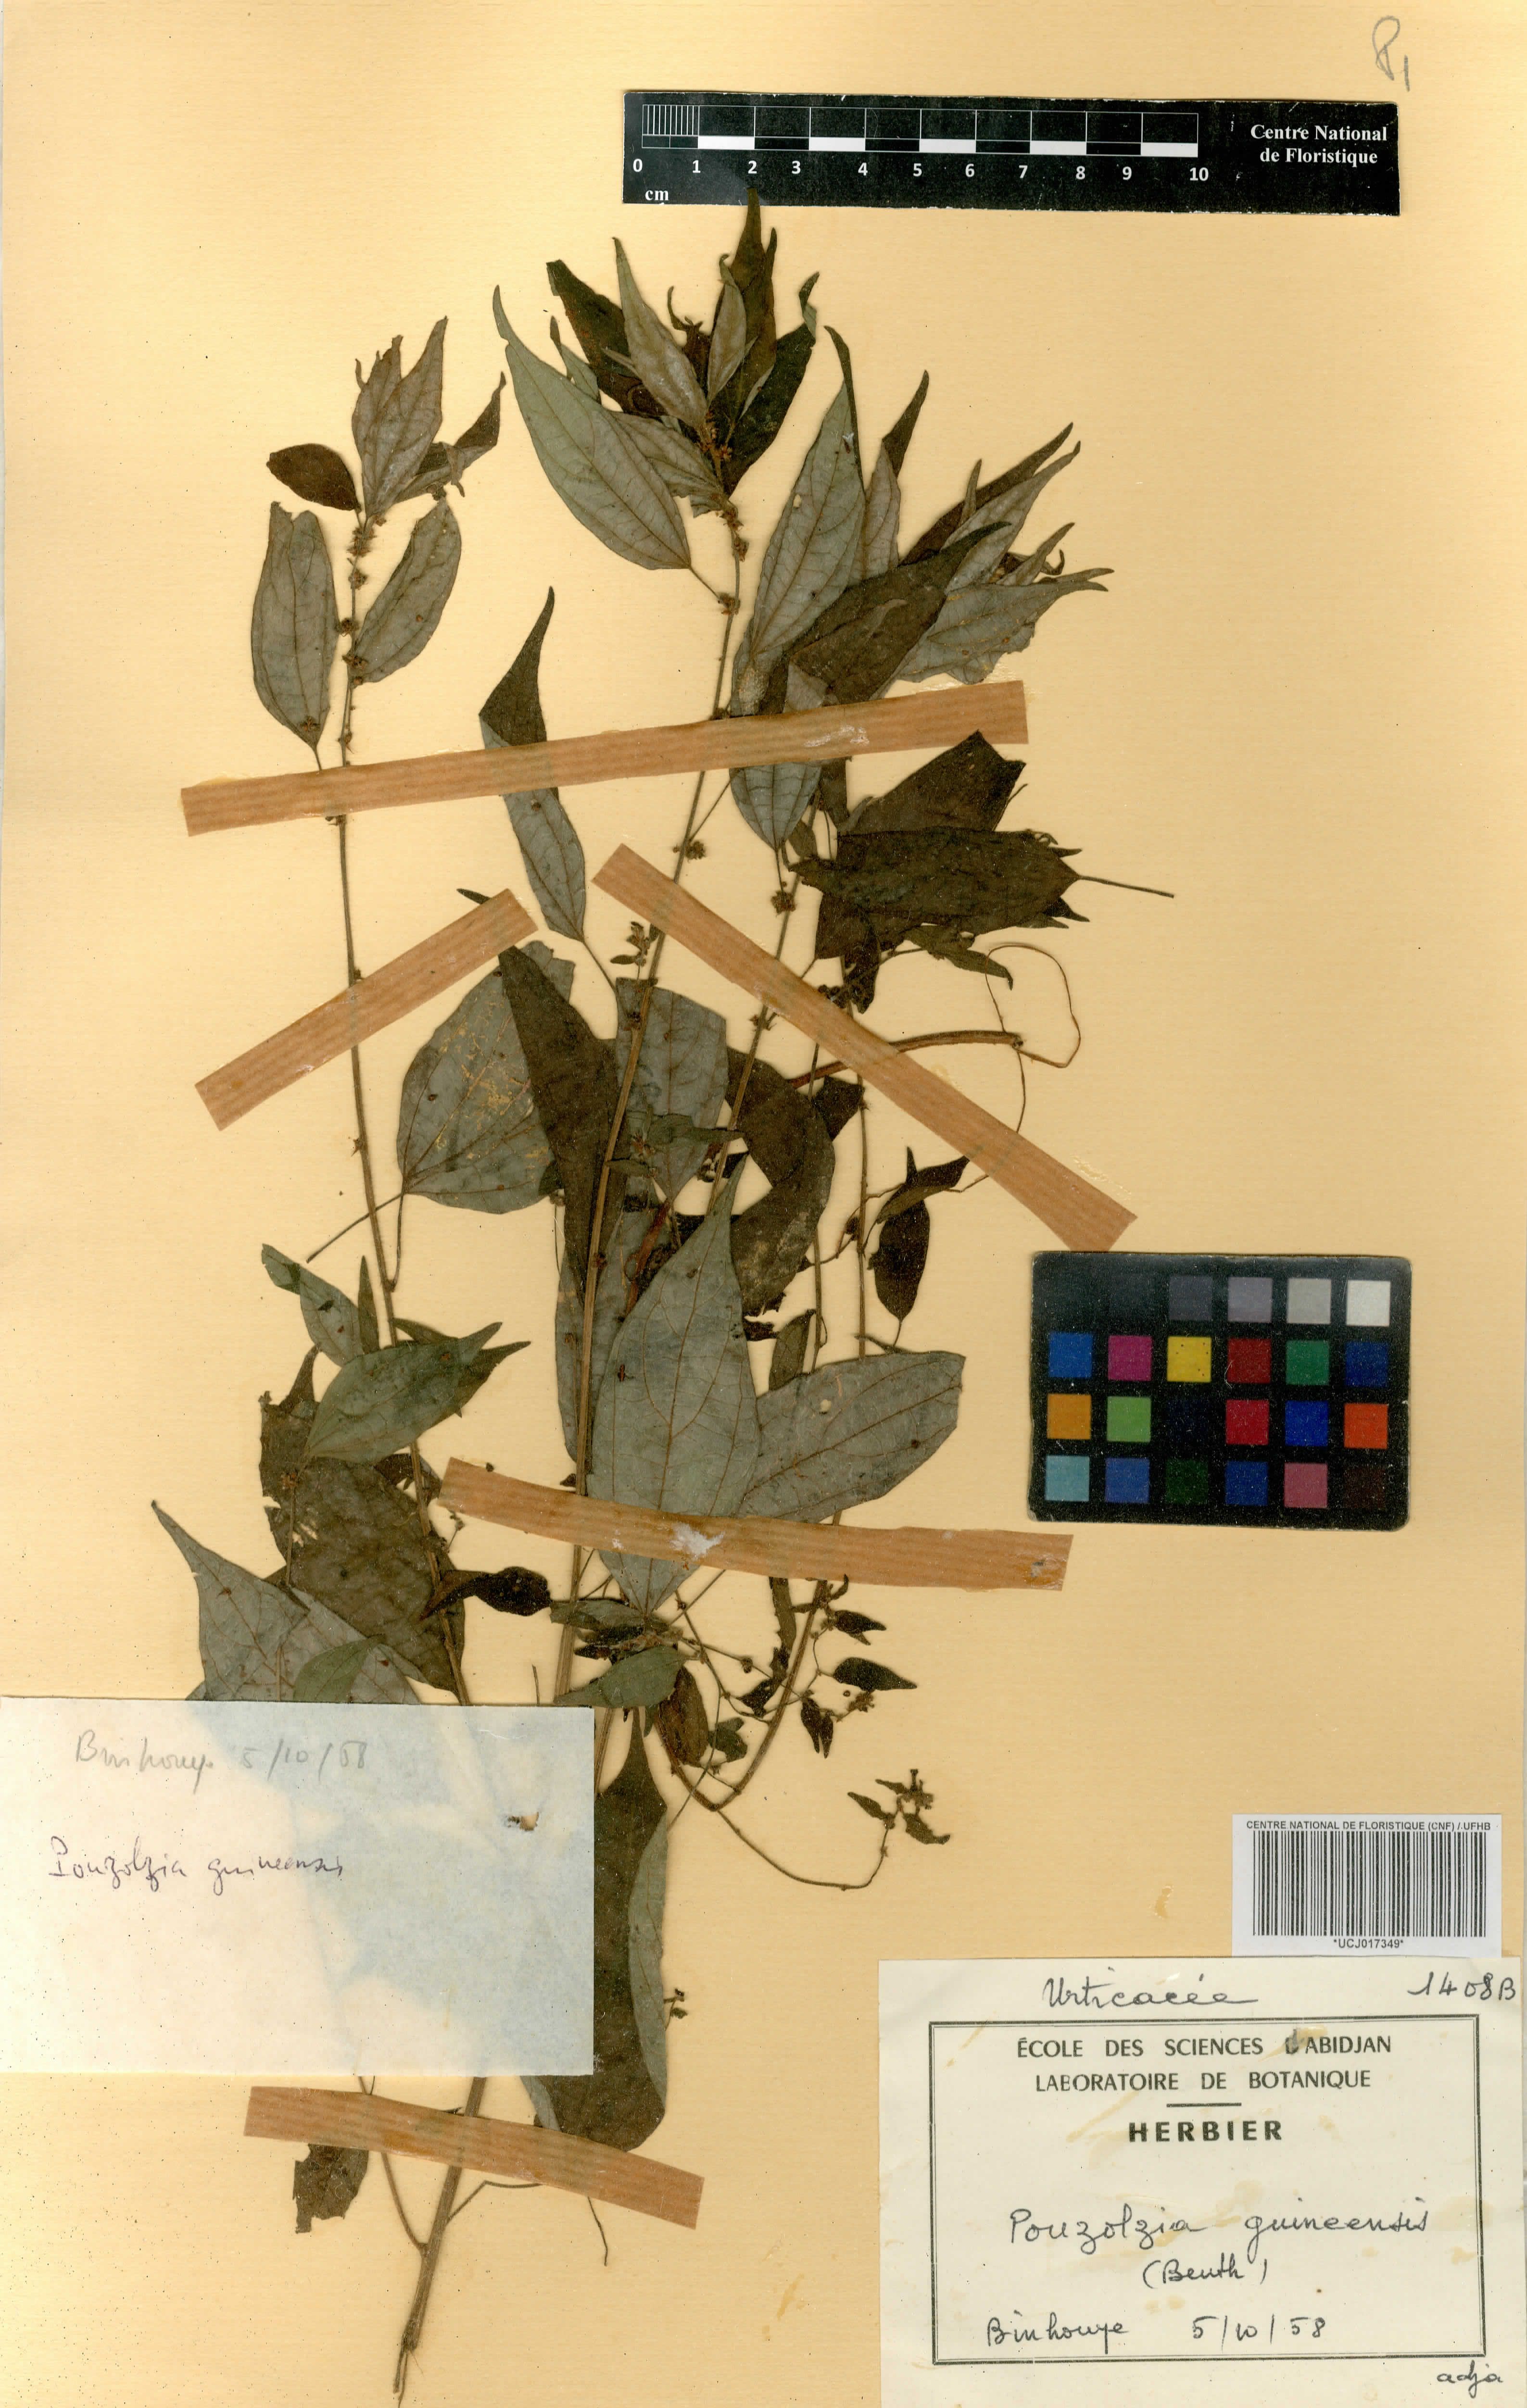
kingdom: Plantae
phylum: Tracheophyta
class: Magnoliopsida
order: Rosales
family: Urticaceae
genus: Pouzolzia
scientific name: Pouzolzia guineensis
